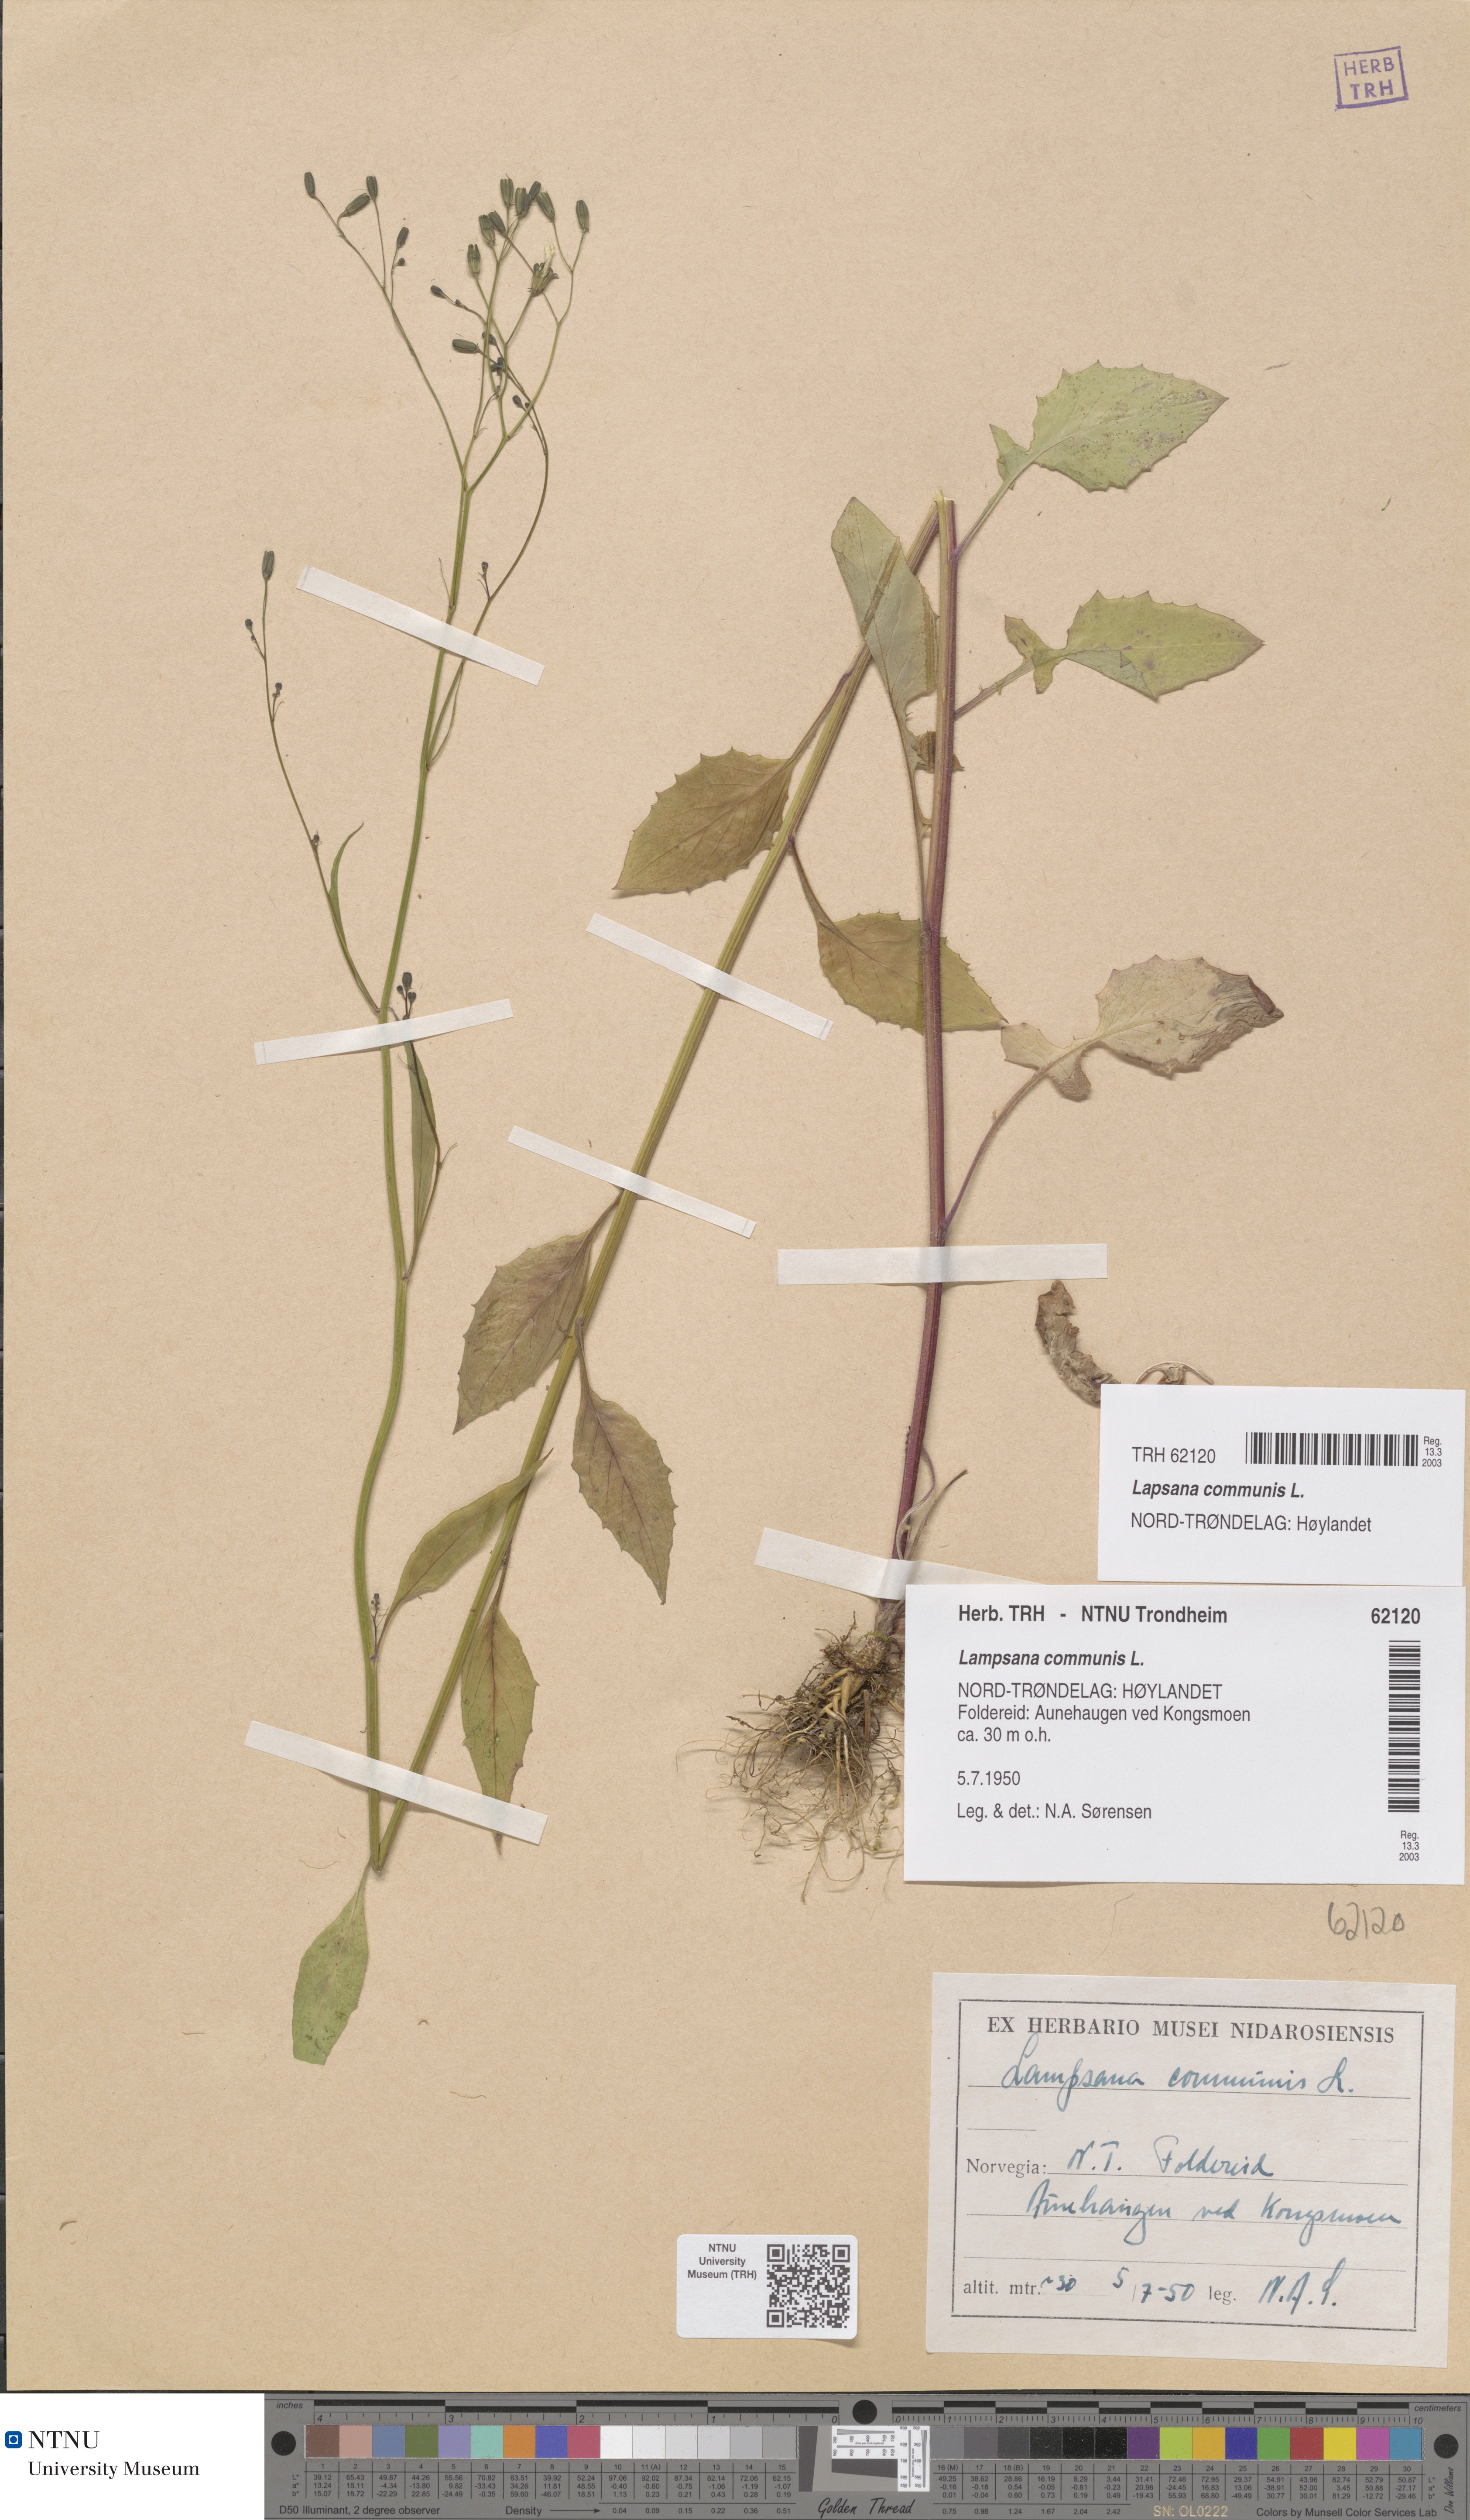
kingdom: Plantae
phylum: Tracheophyta
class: Magnoliopsida
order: Asterales
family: Asteraceae
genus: Lapsana
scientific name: Lapsana communis
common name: Nipplewort
